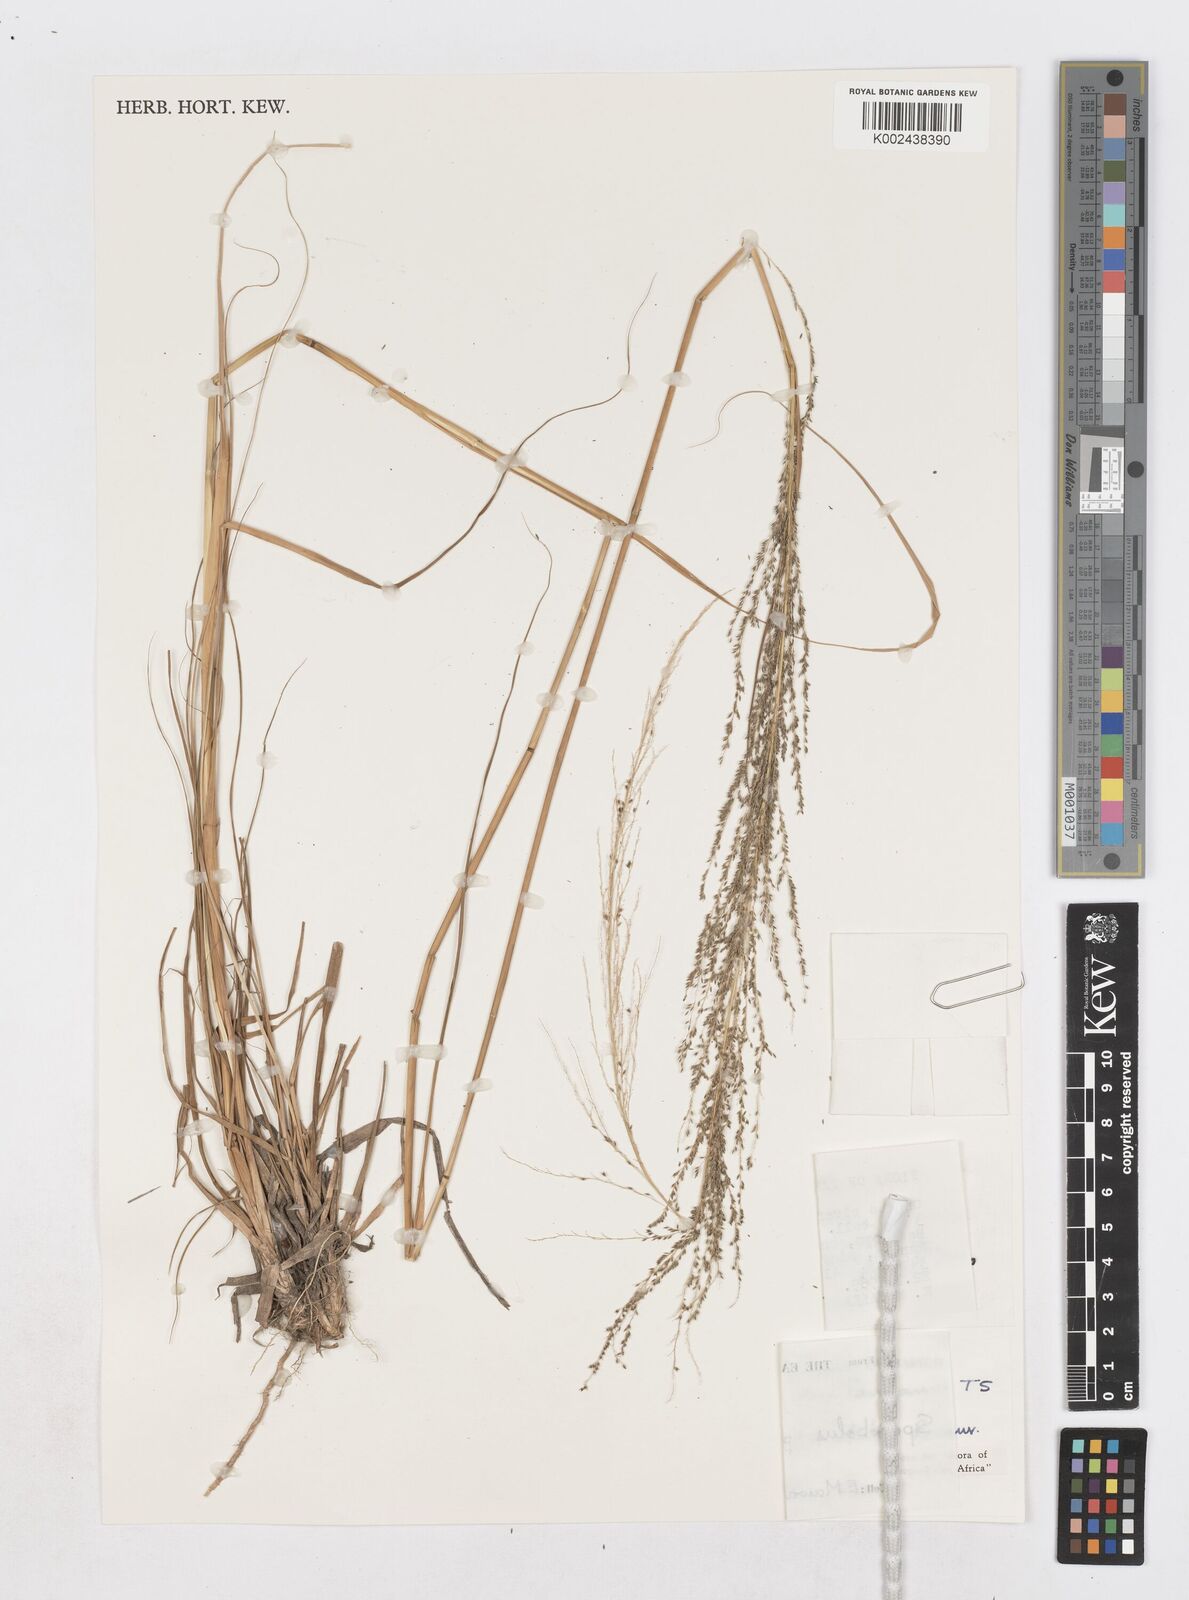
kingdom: Plantae
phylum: Tracheophyta
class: Liliopsida
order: Poales
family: Poaceae
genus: Sporobolus
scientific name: Sporobolus pyramidalis
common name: West indian dropseed
